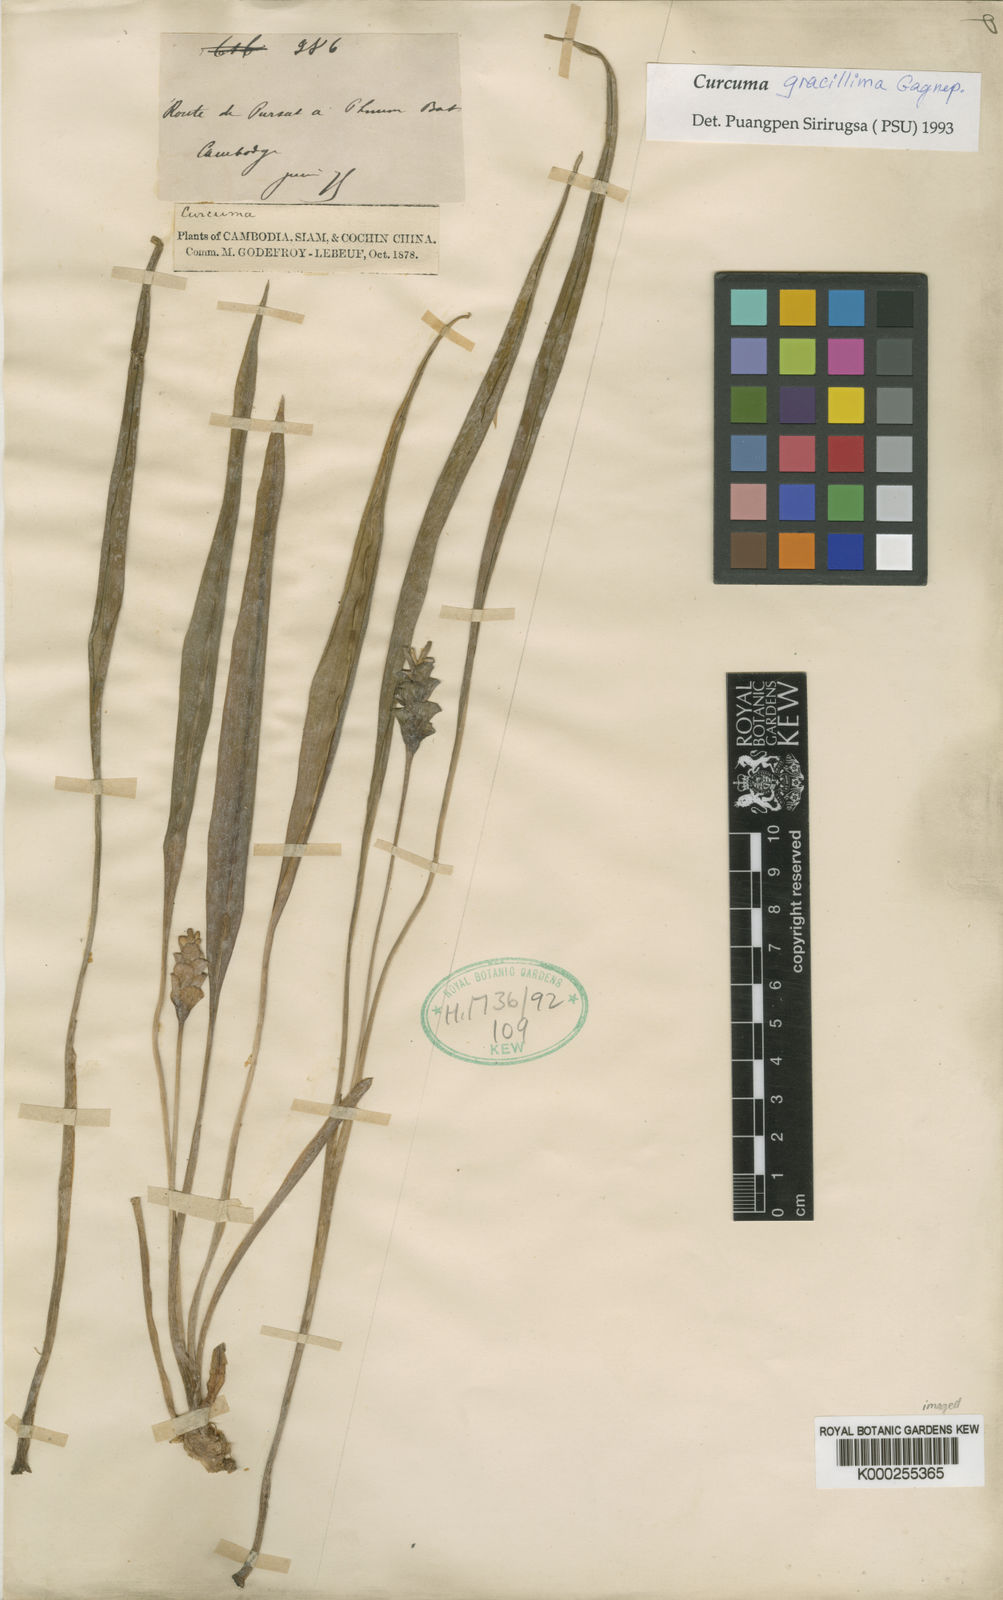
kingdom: Plantae
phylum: Tracheophyta
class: Liliopsida
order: Zingiberales
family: Zingiberaceae
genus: Curcuma
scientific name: Curcuma gracillima
